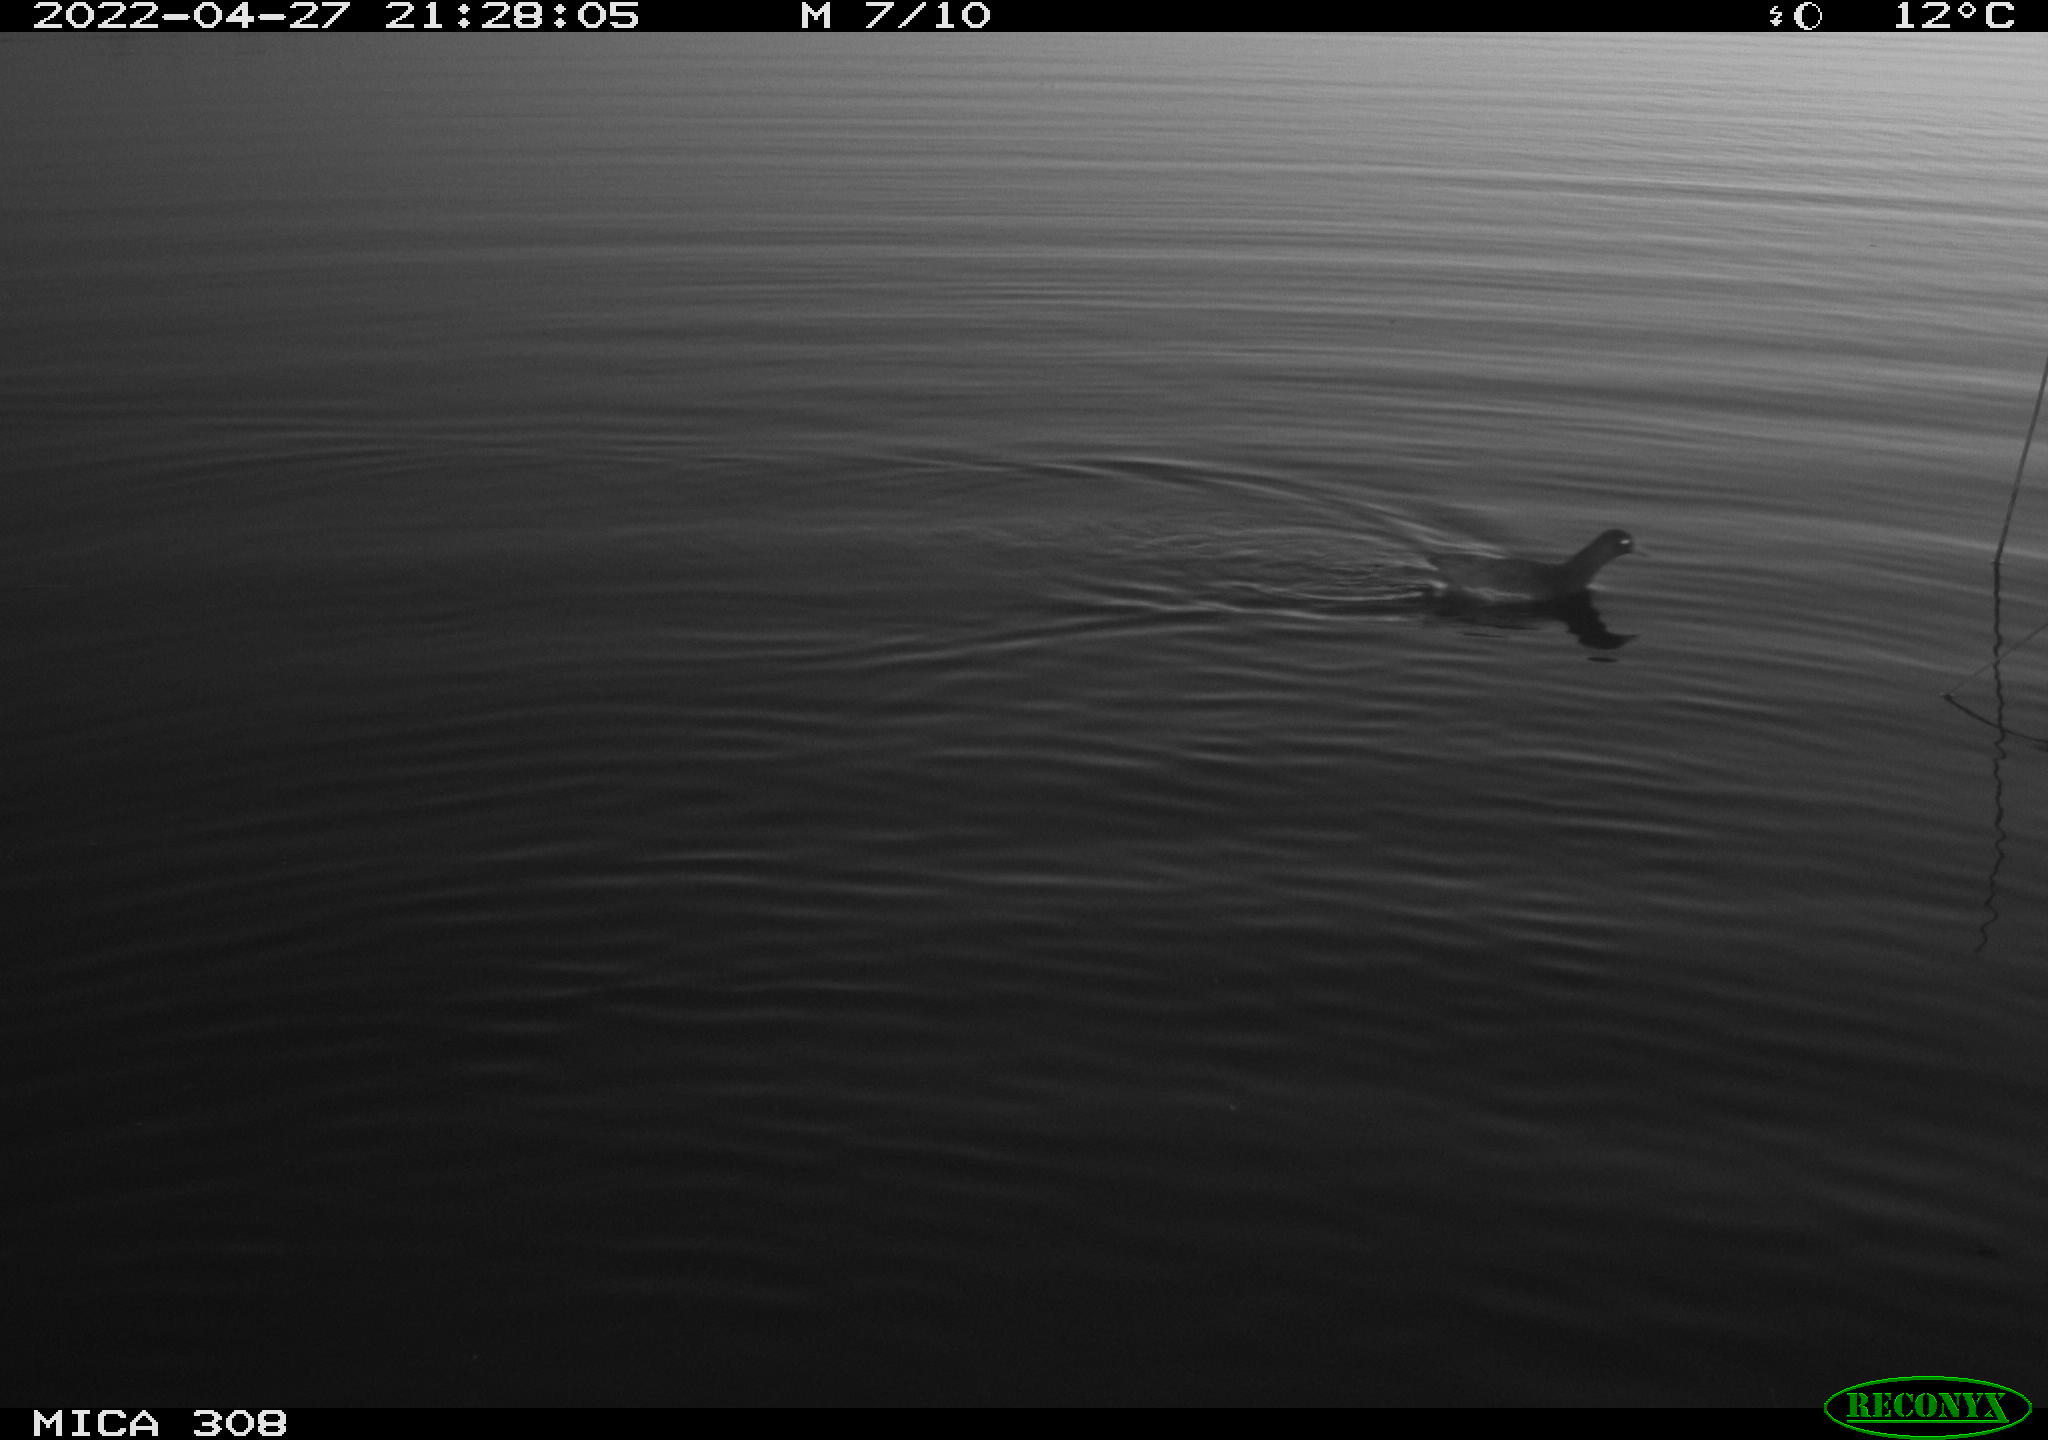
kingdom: Animalia
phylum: Chordata
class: Aves
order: Gruiformes
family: Rallidae
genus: Gallinula
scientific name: Gallinula chloropus
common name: Common moorhen
